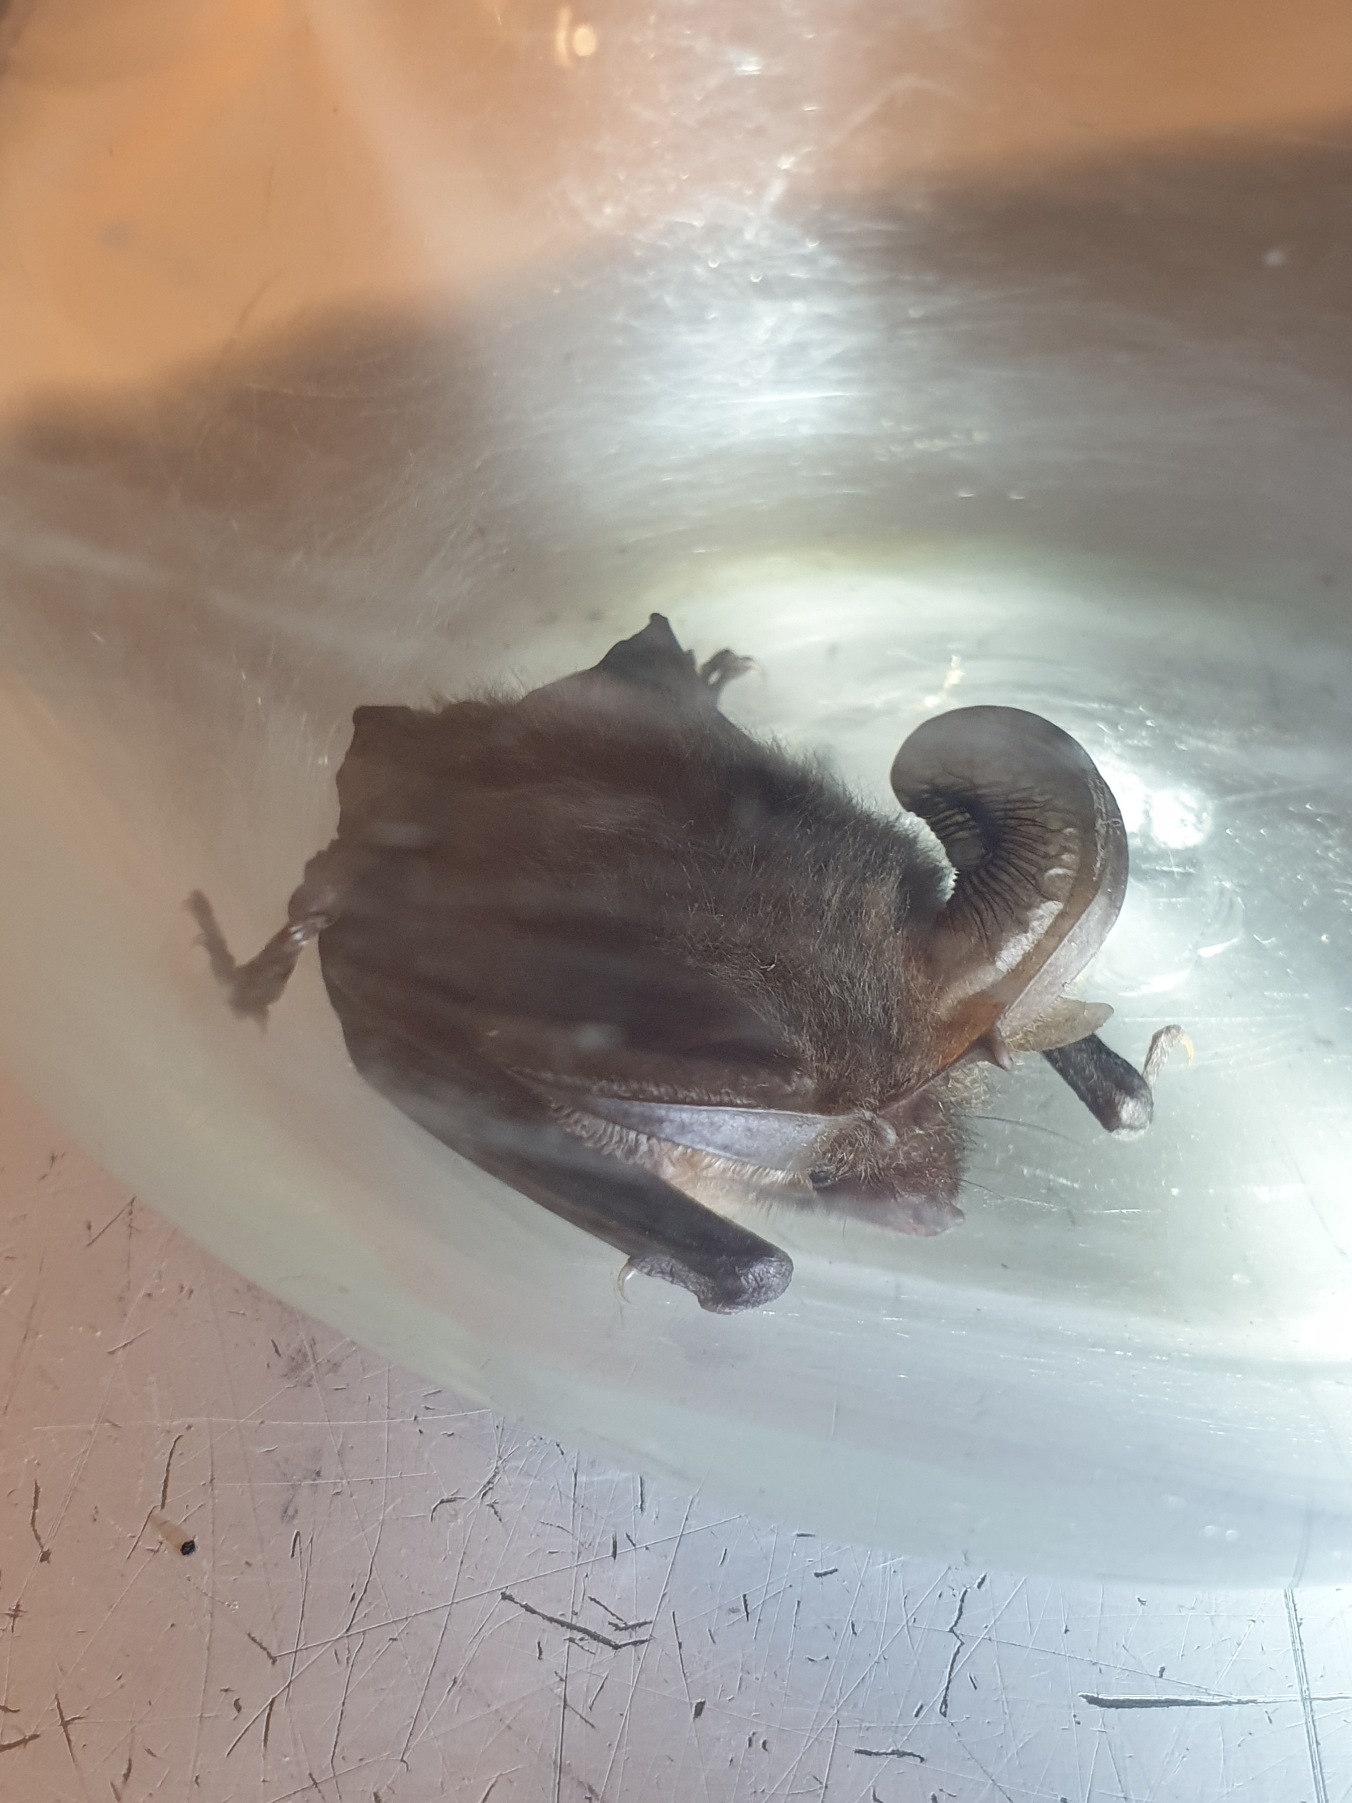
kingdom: Animalia
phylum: Chordata
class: Mammalia
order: Chiroptera
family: Vespertilionidae
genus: Plecotus
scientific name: Plecotus auritus
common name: Brun langøre
